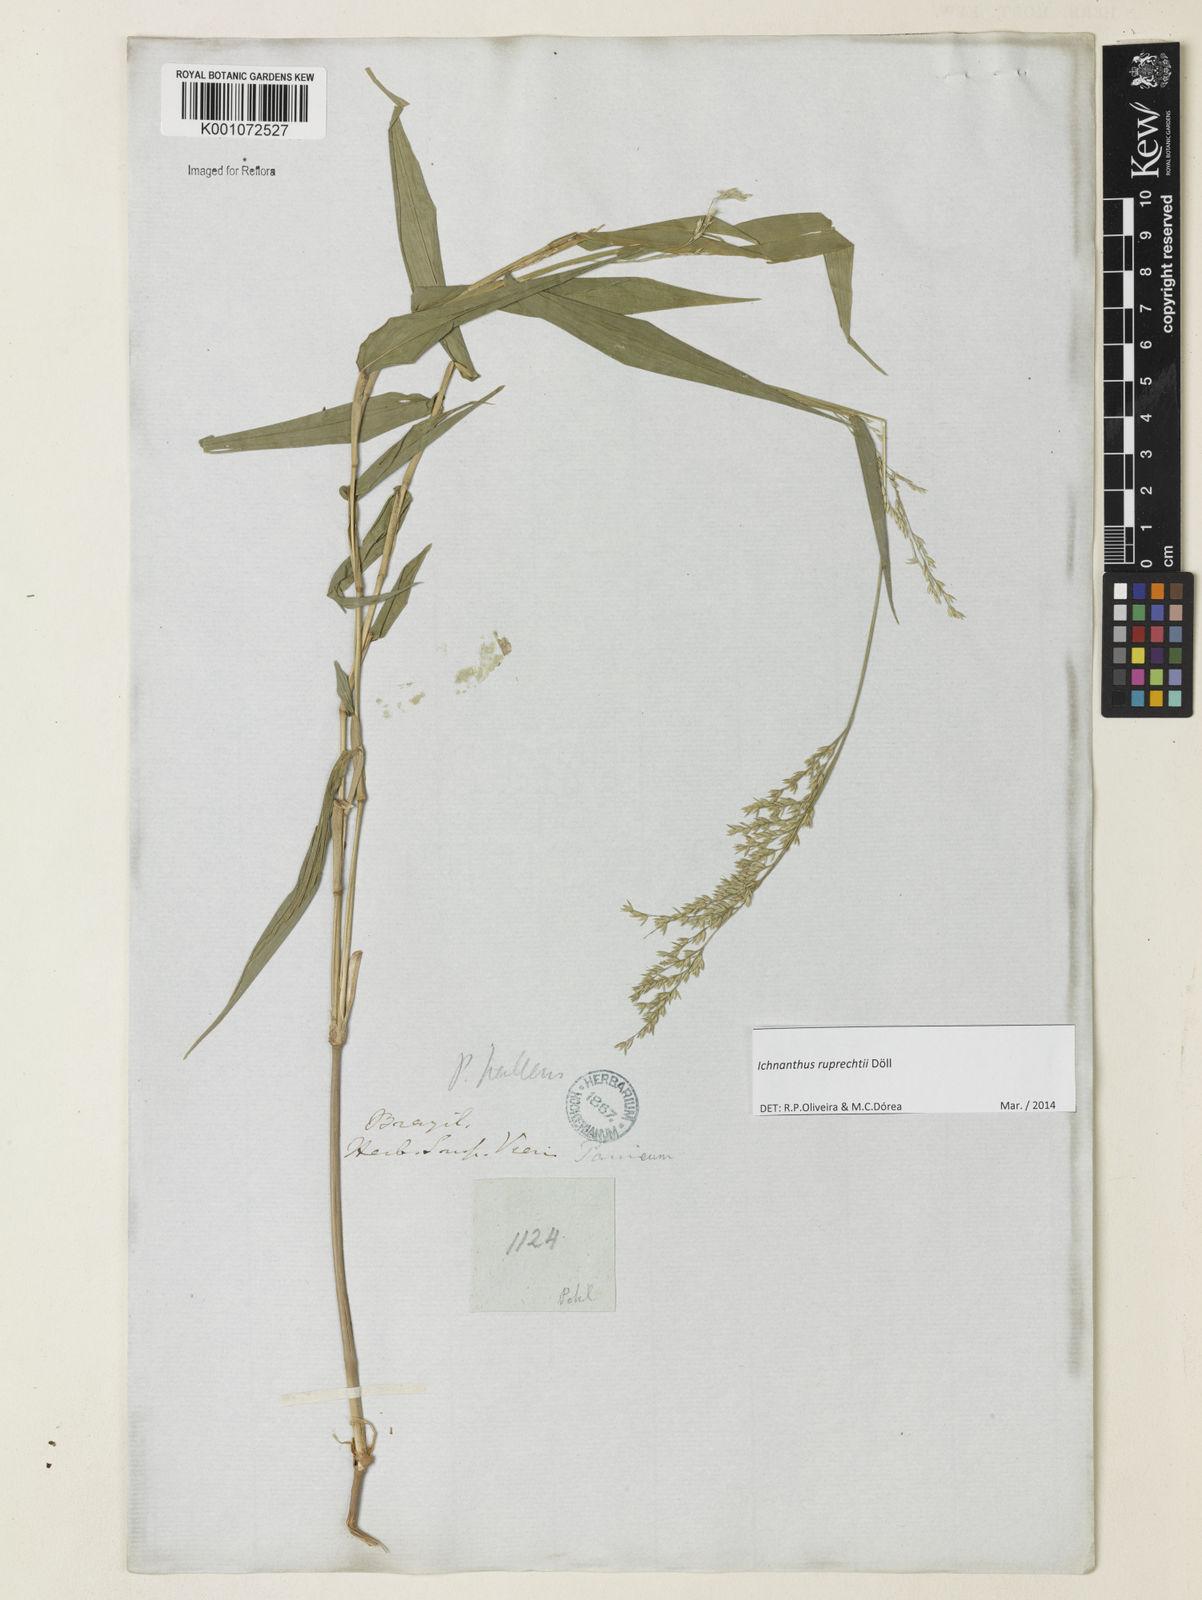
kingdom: Plantae
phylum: Tracheophyta
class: Liliopsida
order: Poales
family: Poaceae
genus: Ichnanthus
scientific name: Ichnanthus
